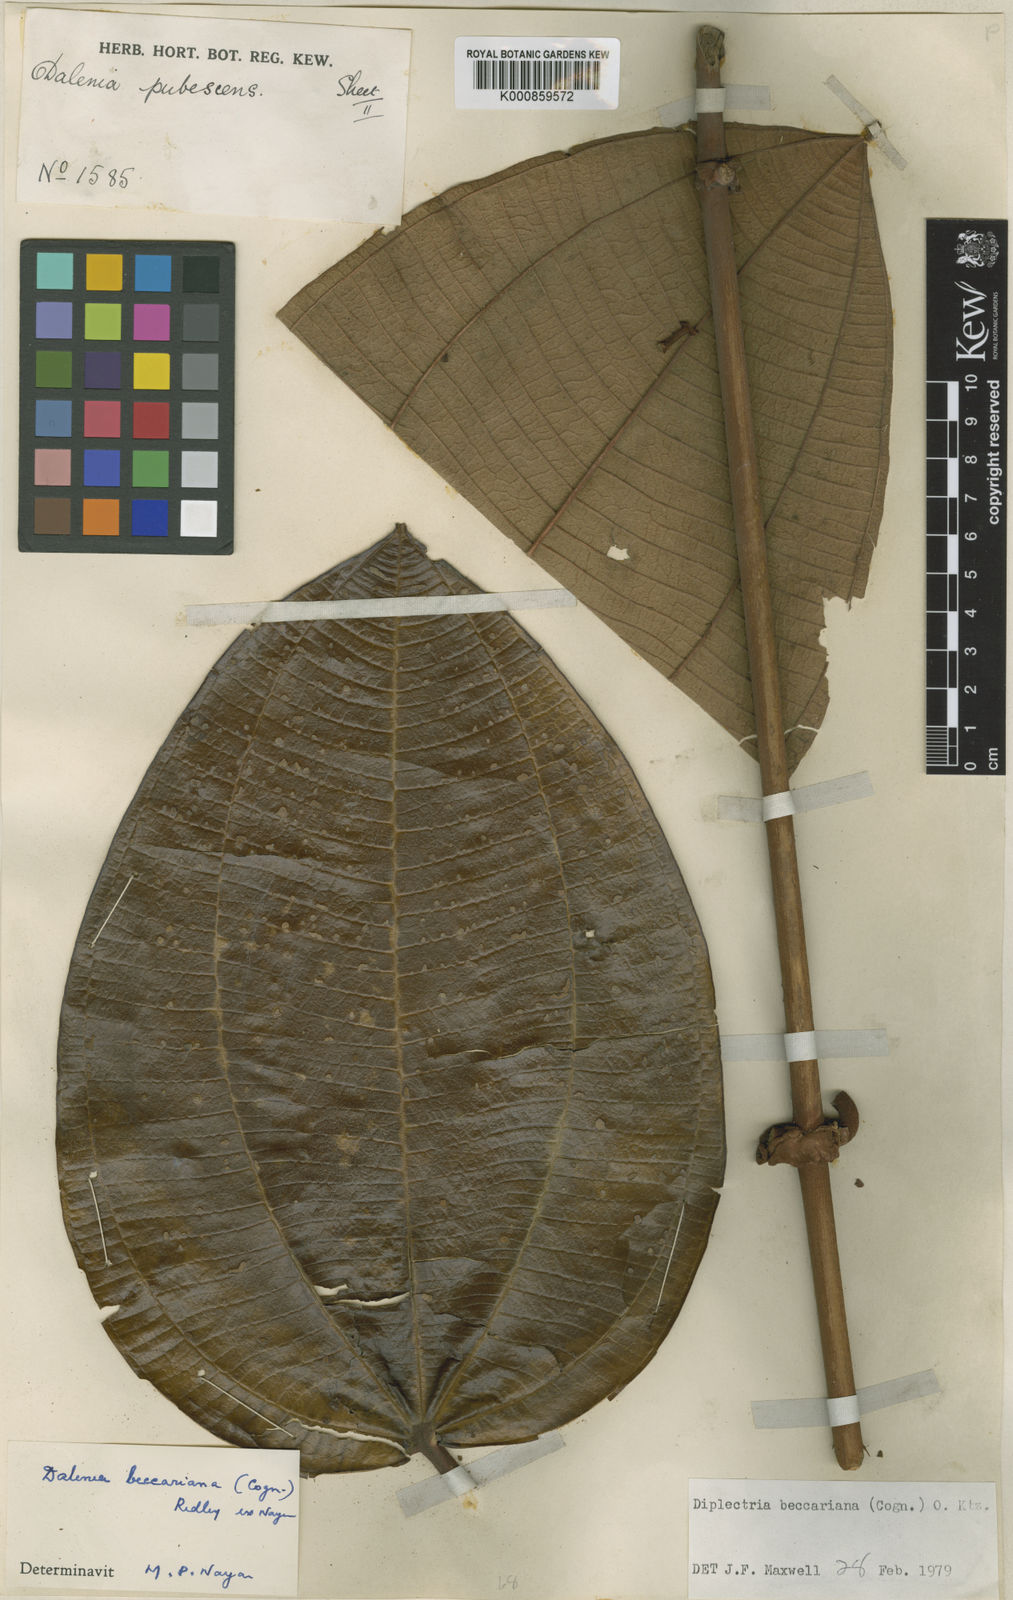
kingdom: Plantae
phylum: Tracheophyta
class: Magnoliopsida
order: Myrtales
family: Melastomataceae
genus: Dalenia
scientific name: Dalenia beccariana
